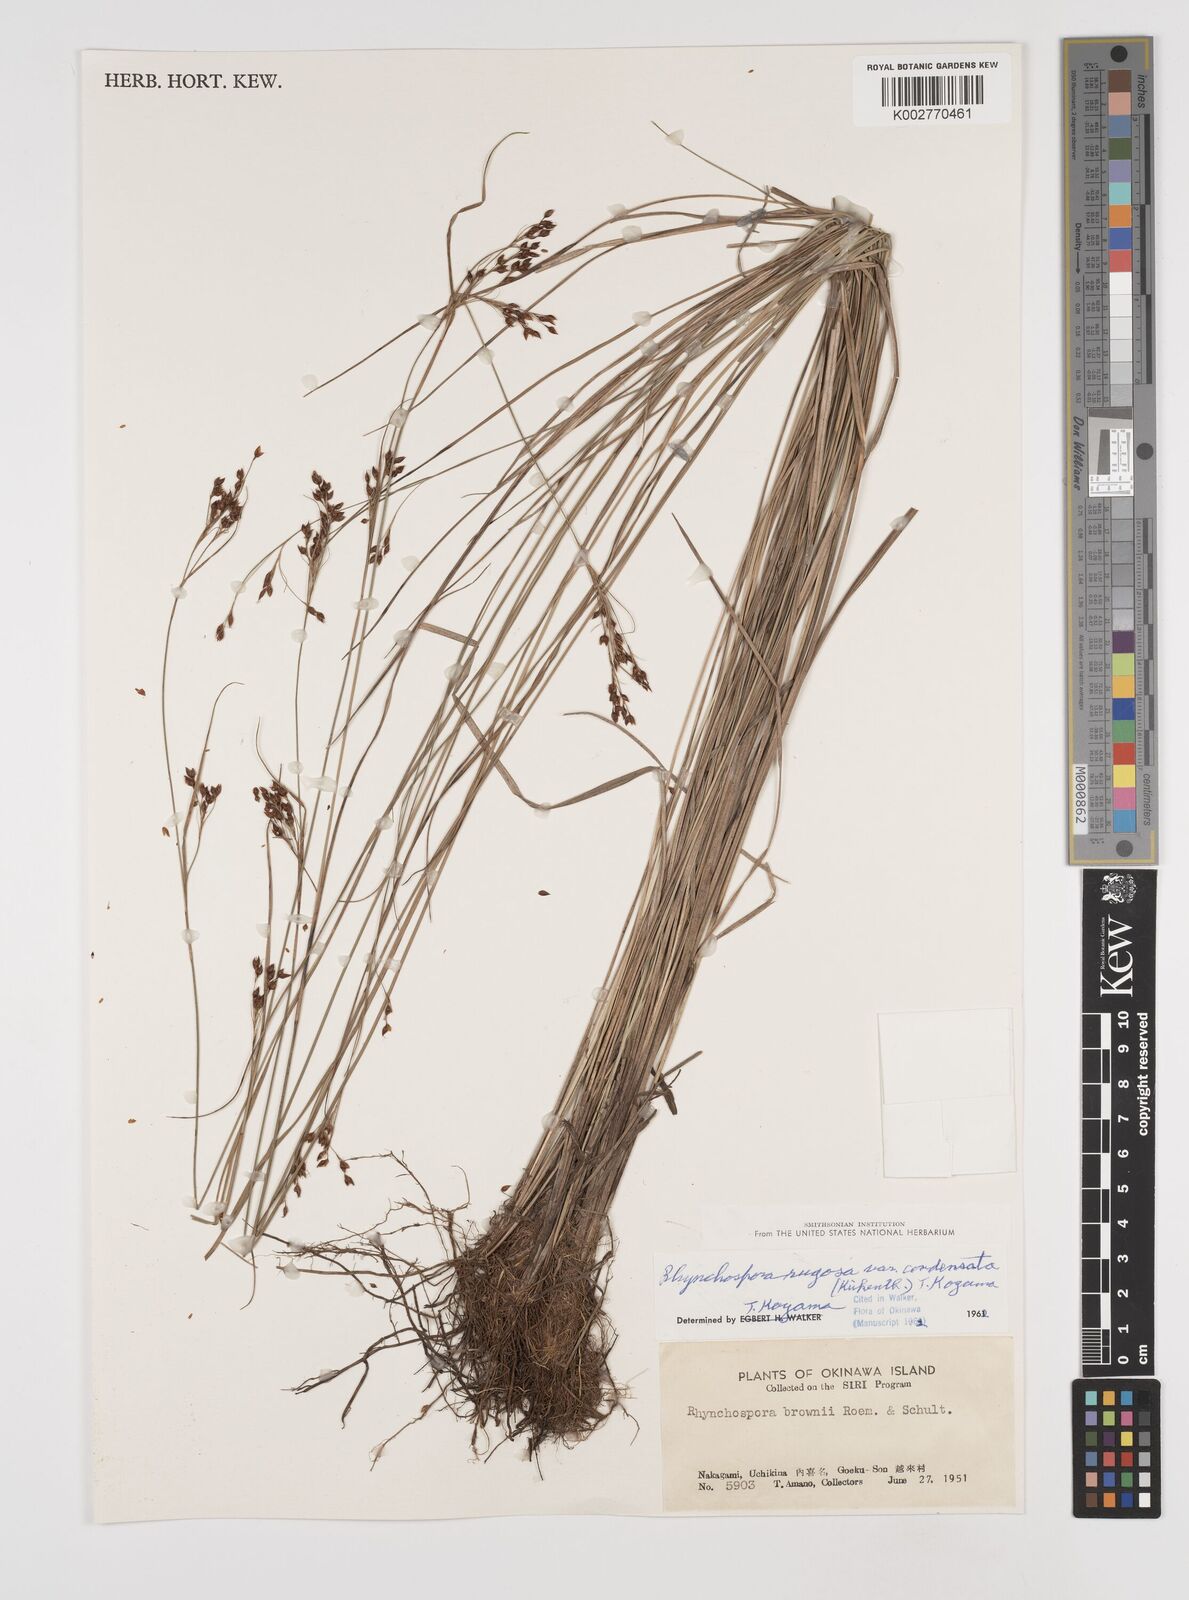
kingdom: Plantae
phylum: Tracheophyta
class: Liliopsida
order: Poales
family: Cyperaceae
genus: Rhynchospora
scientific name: Rhynchospora
